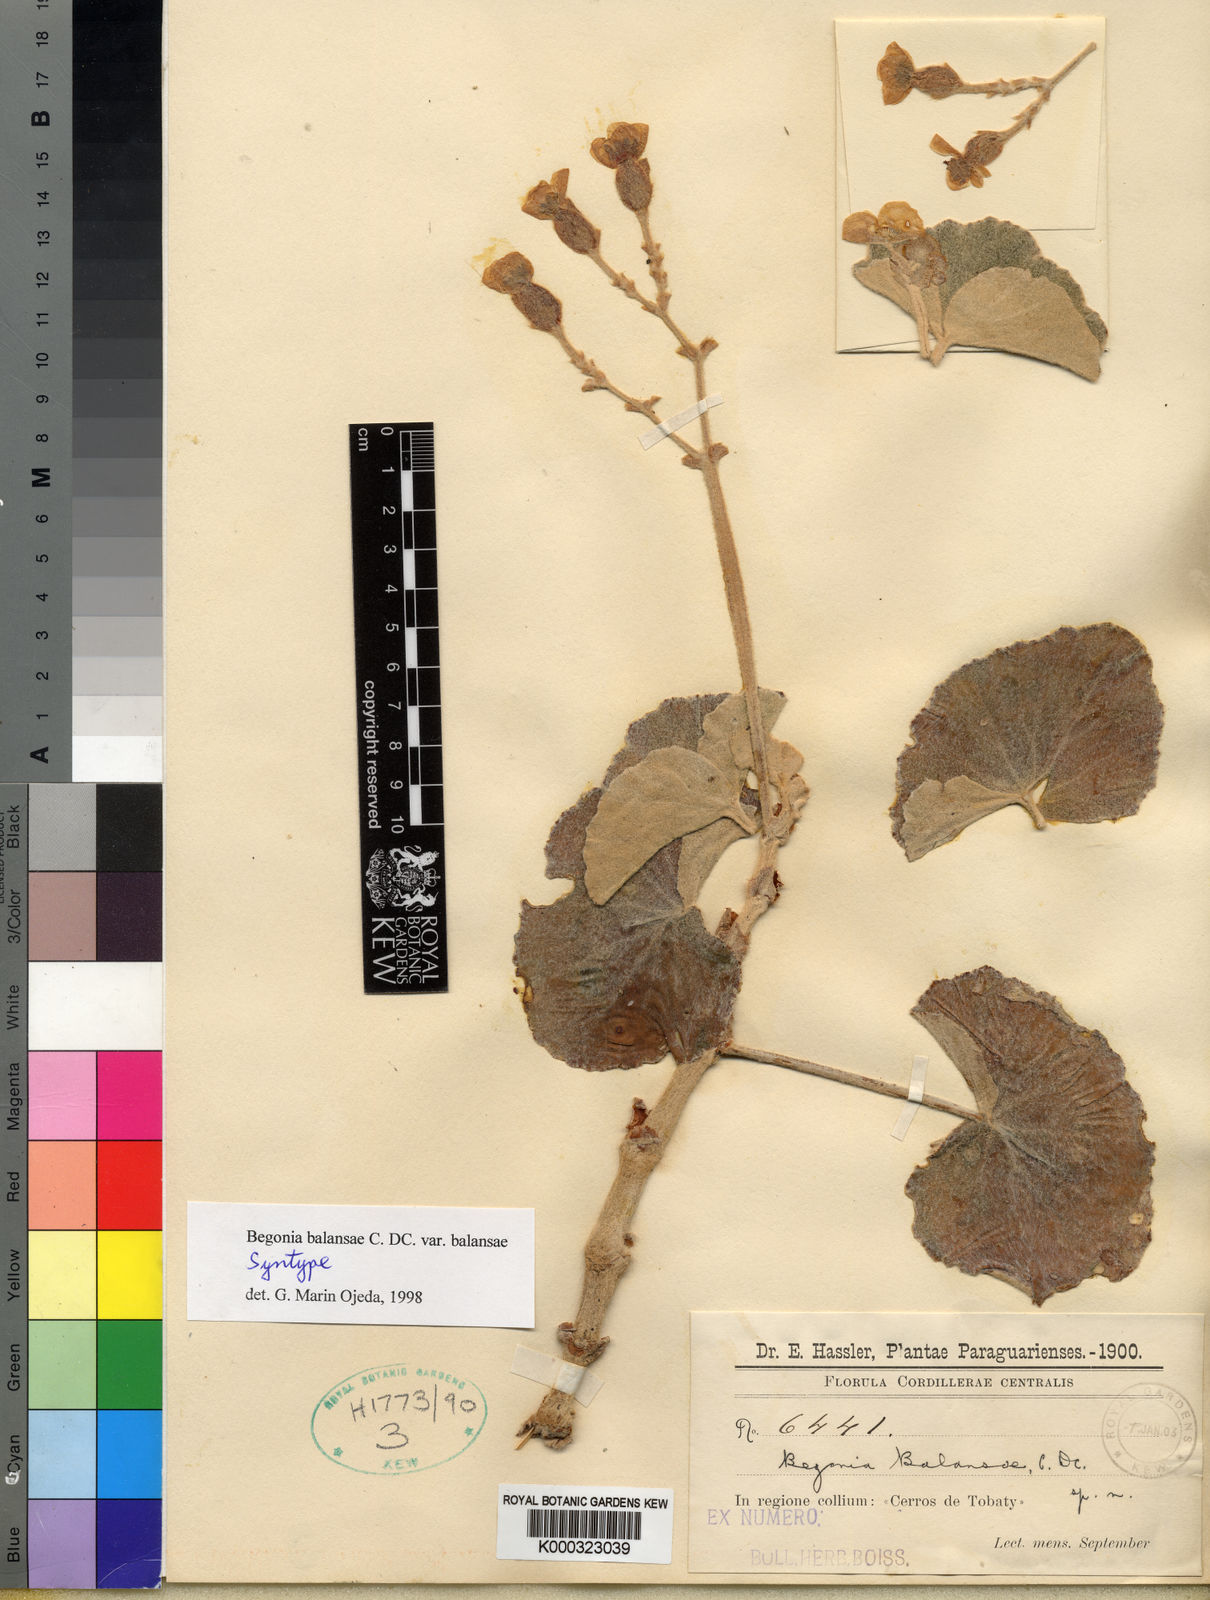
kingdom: Plantae
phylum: Tracheophyta
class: Magnoliopsida
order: Cucurbitales
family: Begoniaceae
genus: Begonia
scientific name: Begonia balansae
